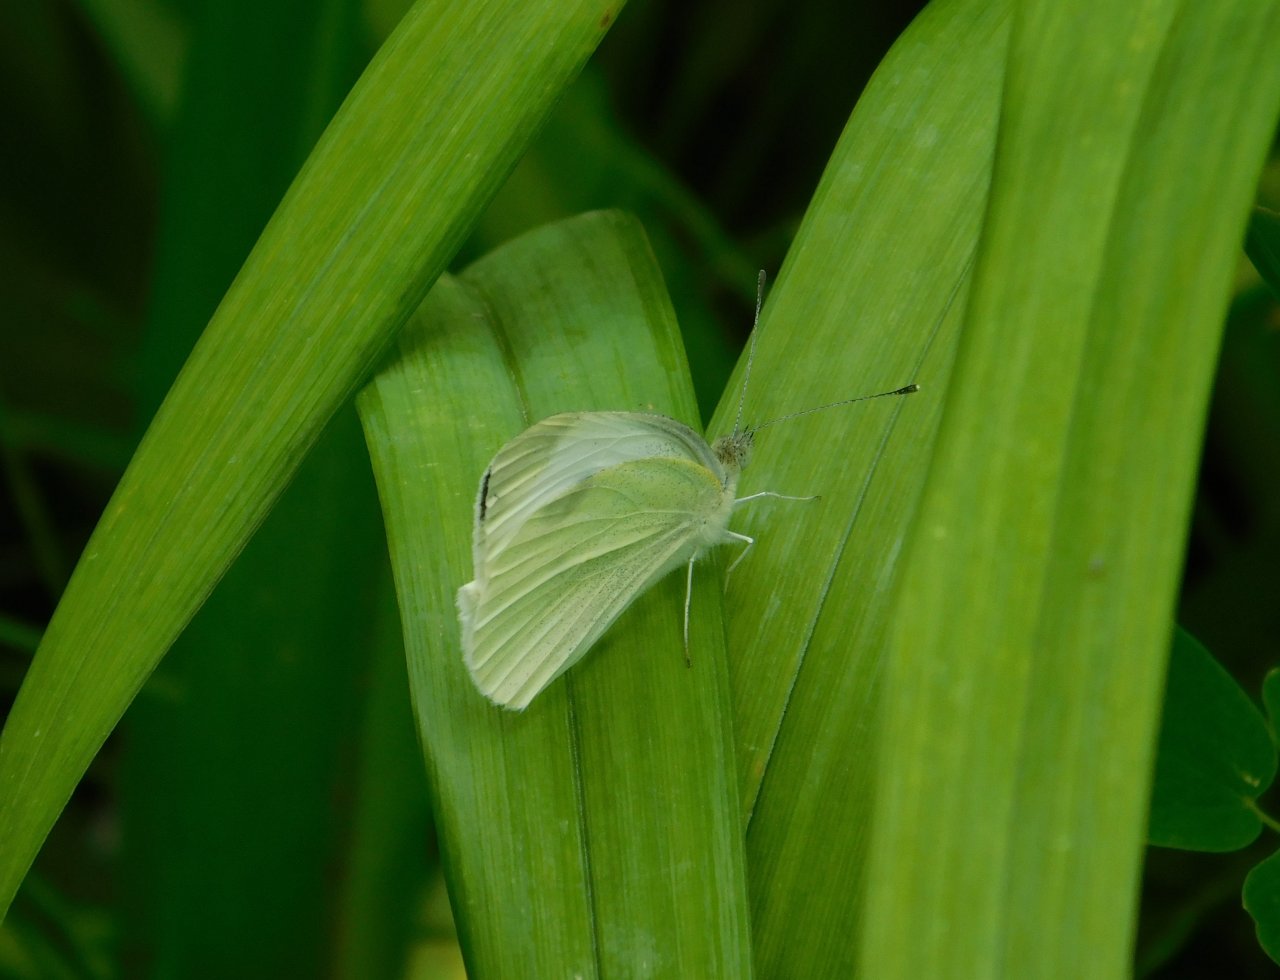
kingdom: Animalia
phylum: Arthropoda
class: Insecta
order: Lepidoptera
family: Pieridae
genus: Pieris
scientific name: Pieris rapae
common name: Cabbage White
